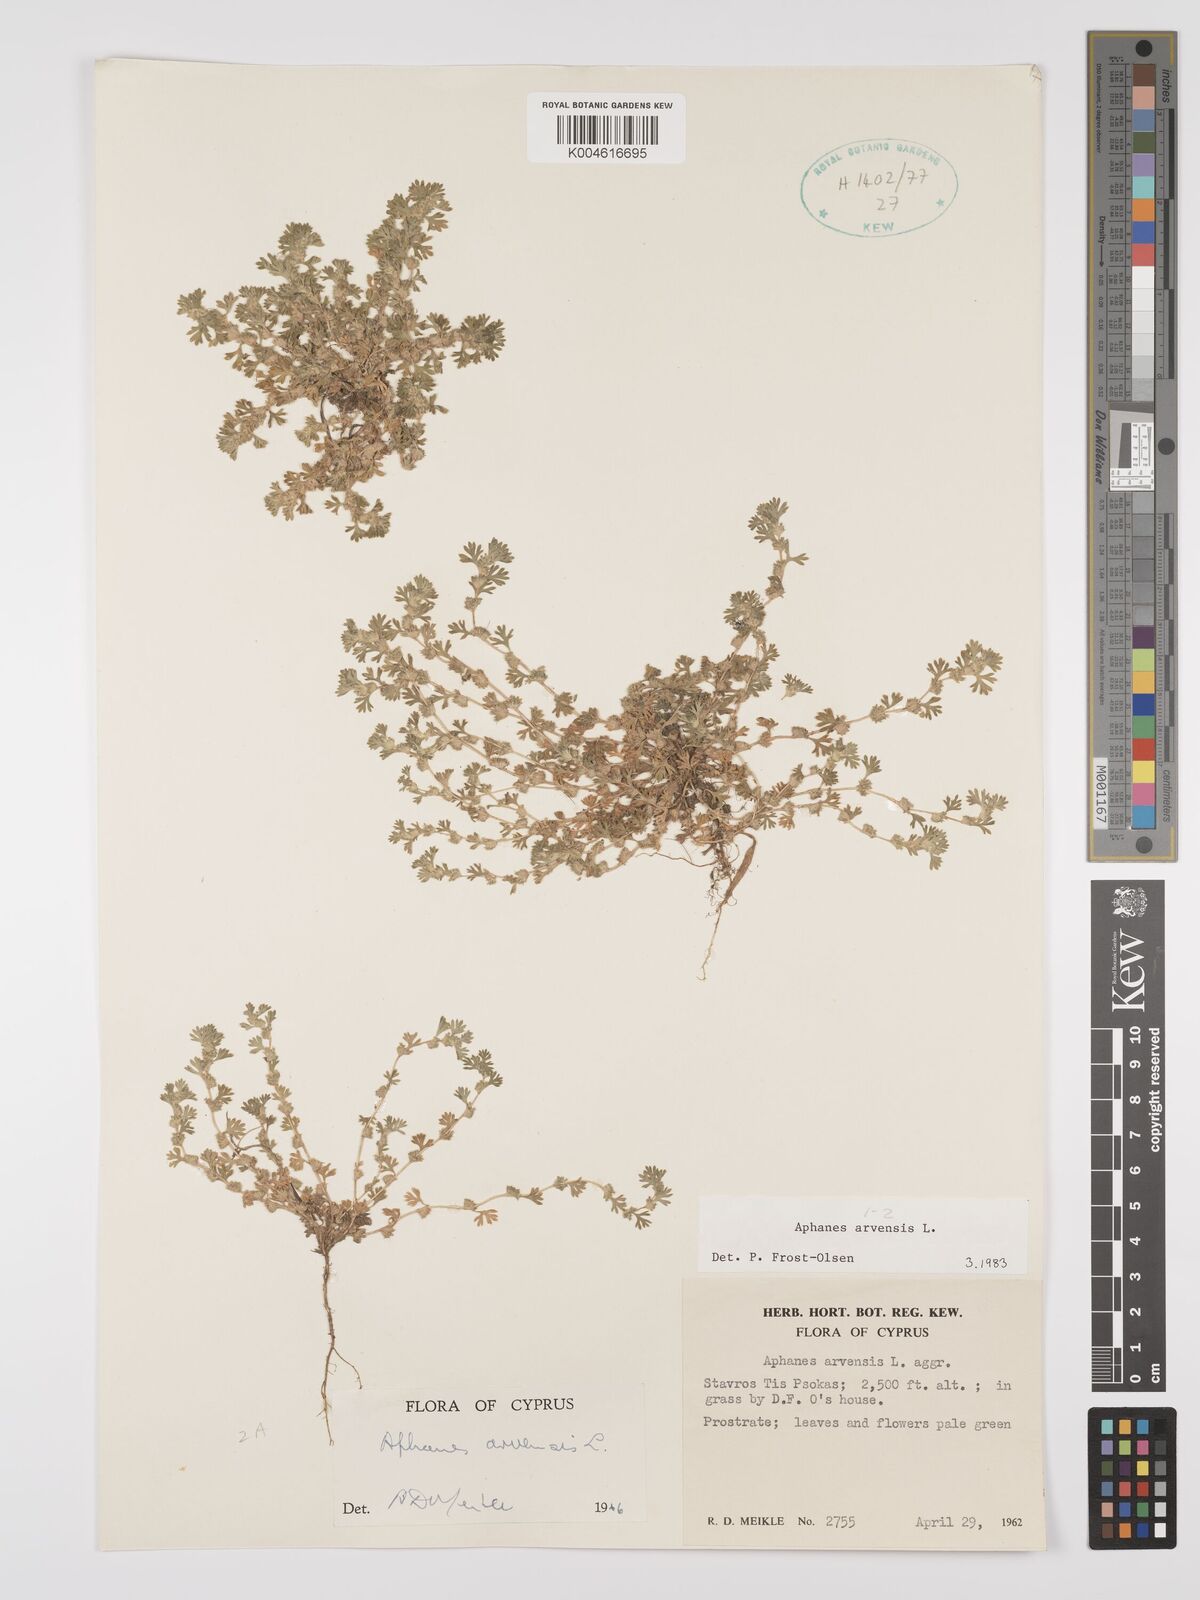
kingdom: Plantae
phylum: Tracheophyta
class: Magnoliopsida
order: Rosales
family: Rosaceae
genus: Aphanes
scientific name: Aphanes arvensis
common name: Parsley-piert
